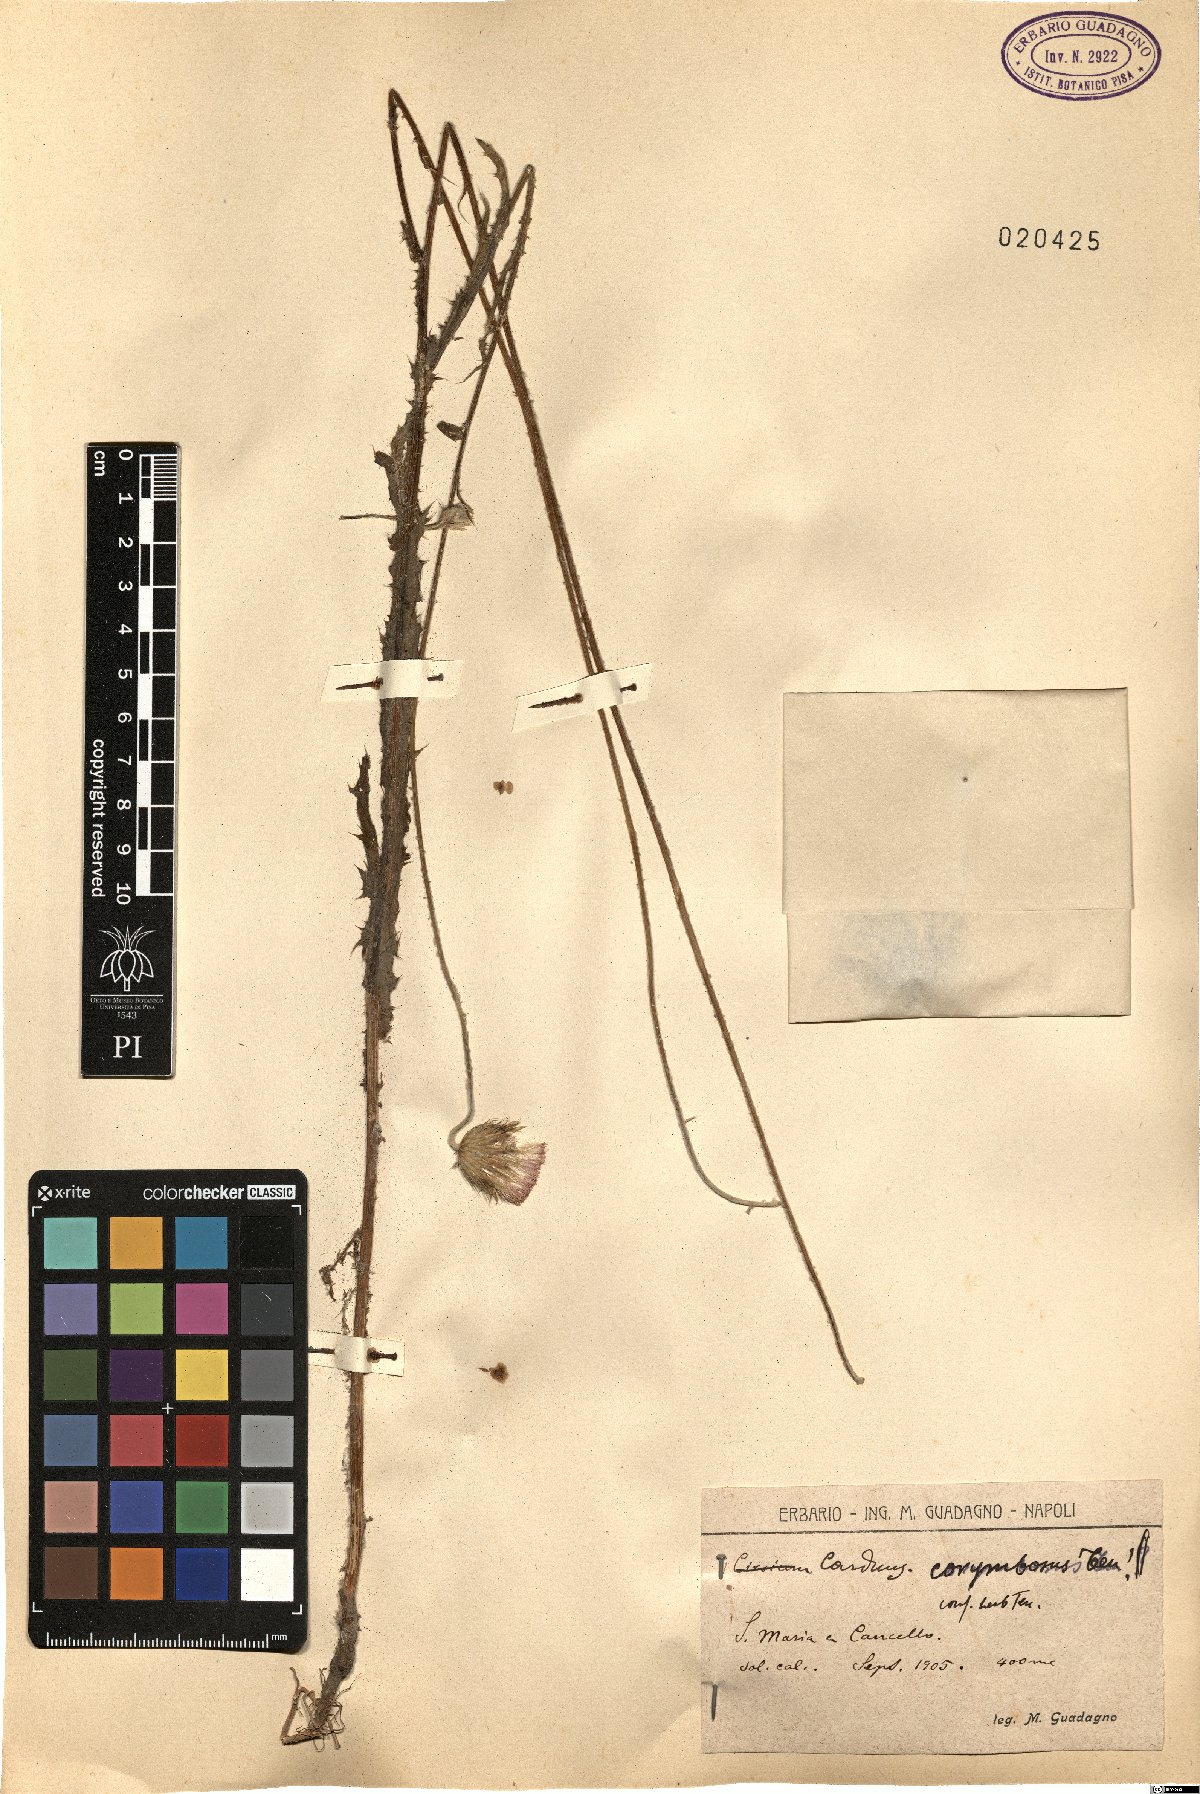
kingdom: Plantae
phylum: Tracheophyta
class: Magnoliopsida
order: Asterales
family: Asteraceae
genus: Carduus
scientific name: Carduus corymbosus
